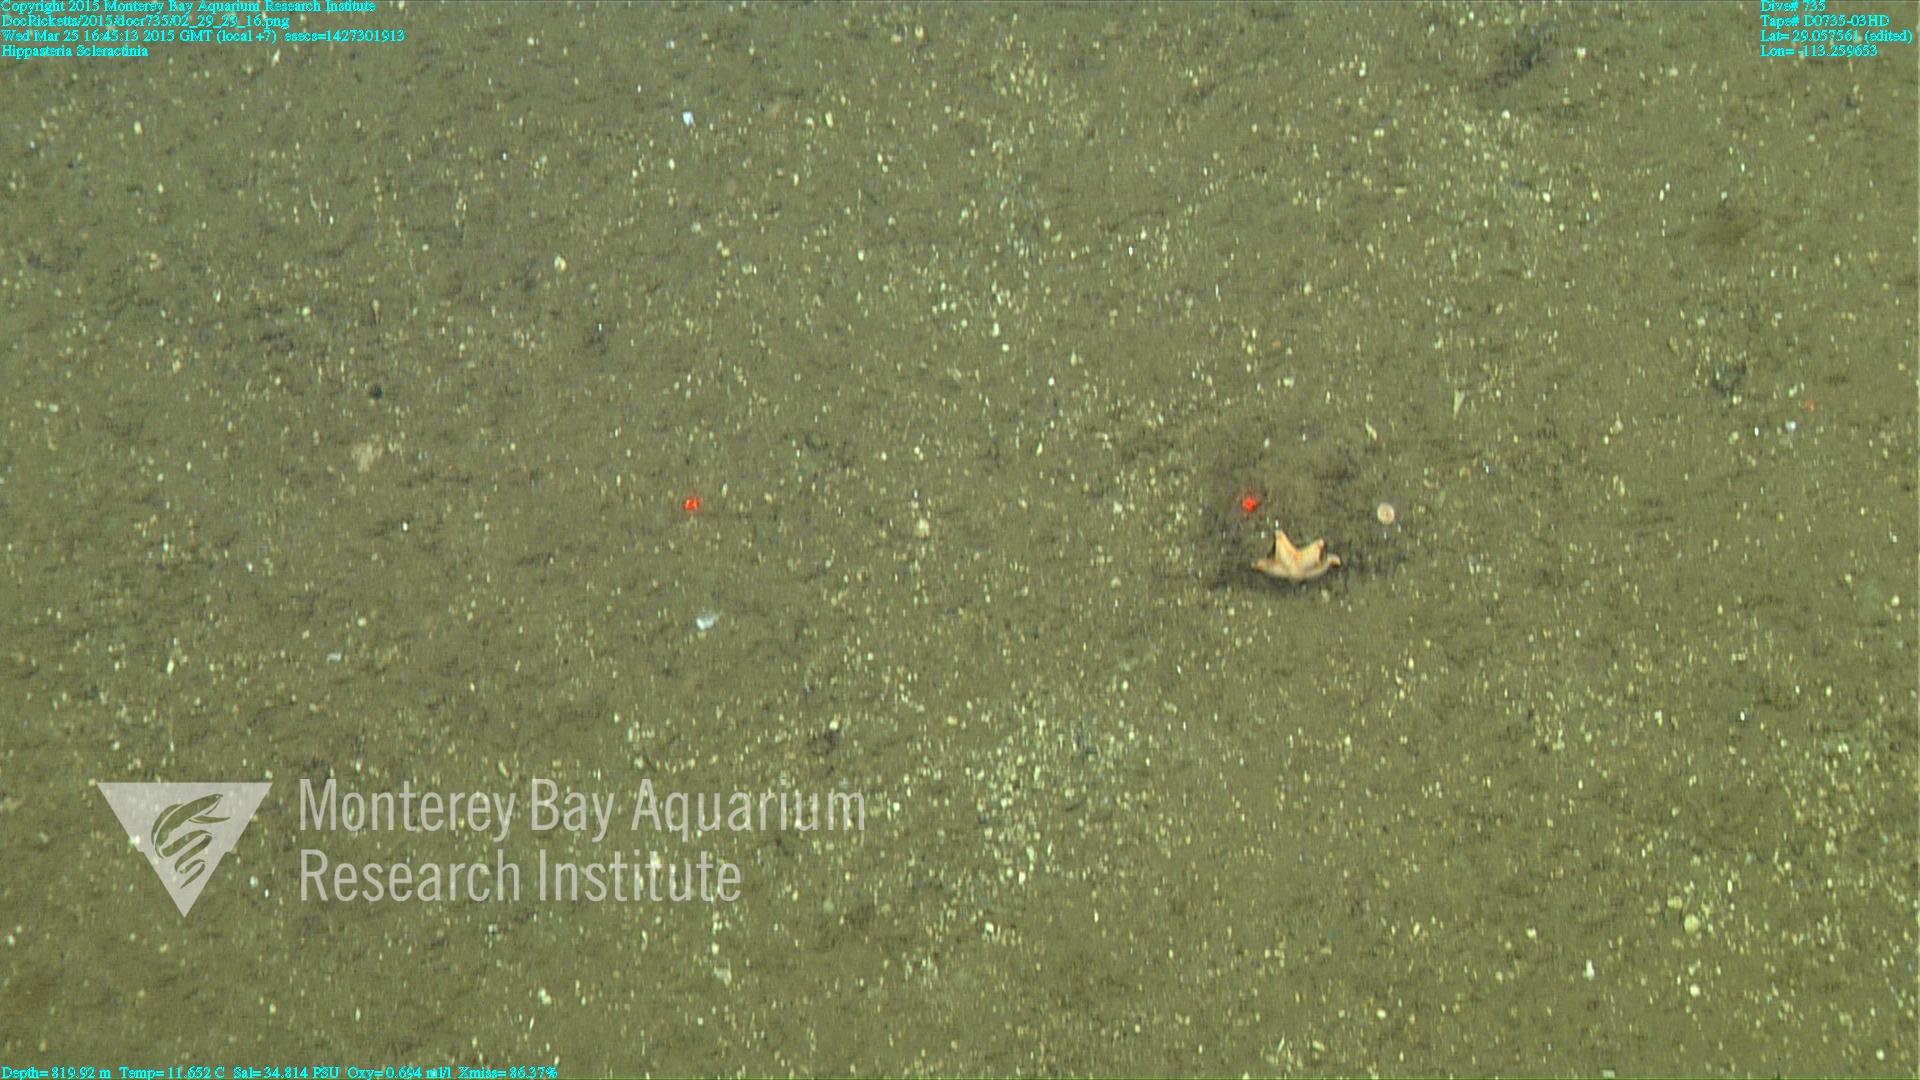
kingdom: Animalia
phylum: Cnidaria
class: Anthozoa
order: Scleractinia
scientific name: Scleractinia
